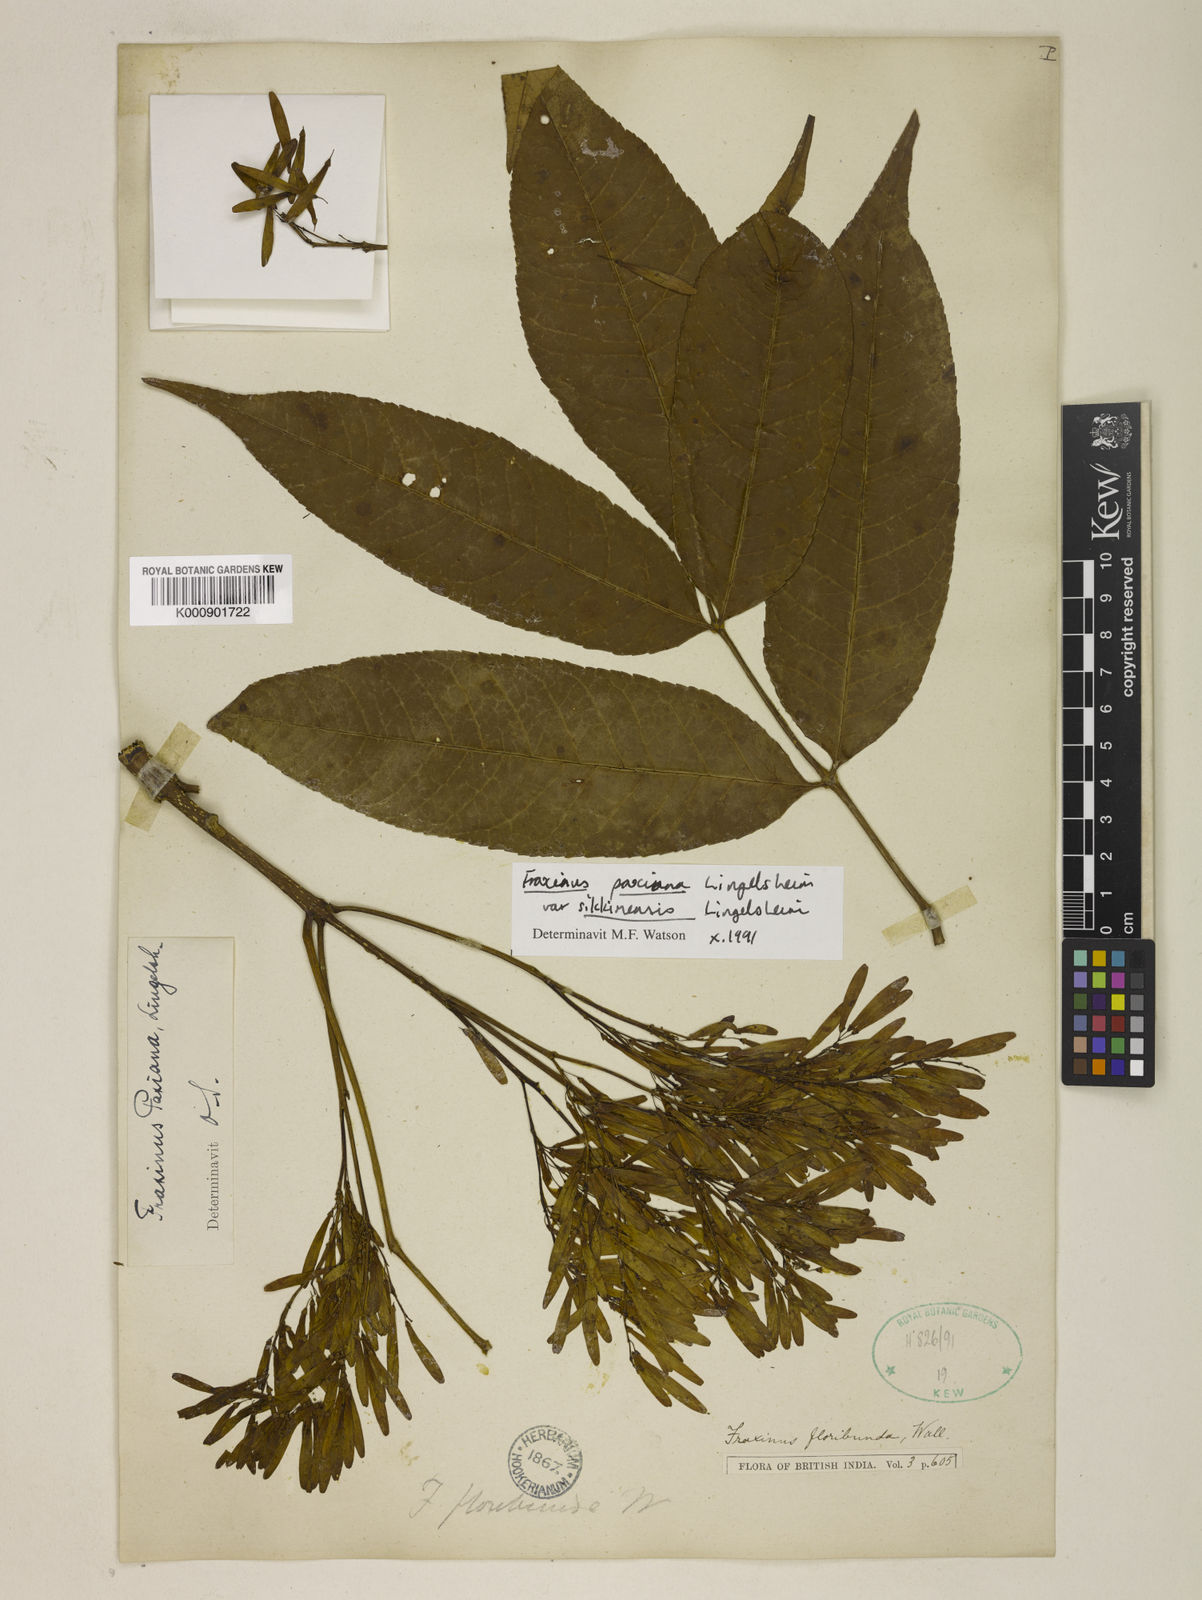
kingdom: Plantae
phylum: Tracheophyta
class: Magnoliopsida
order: Lamiales
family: Oleaceae
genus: Fraxinus
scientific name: Fraxinus paxiana
